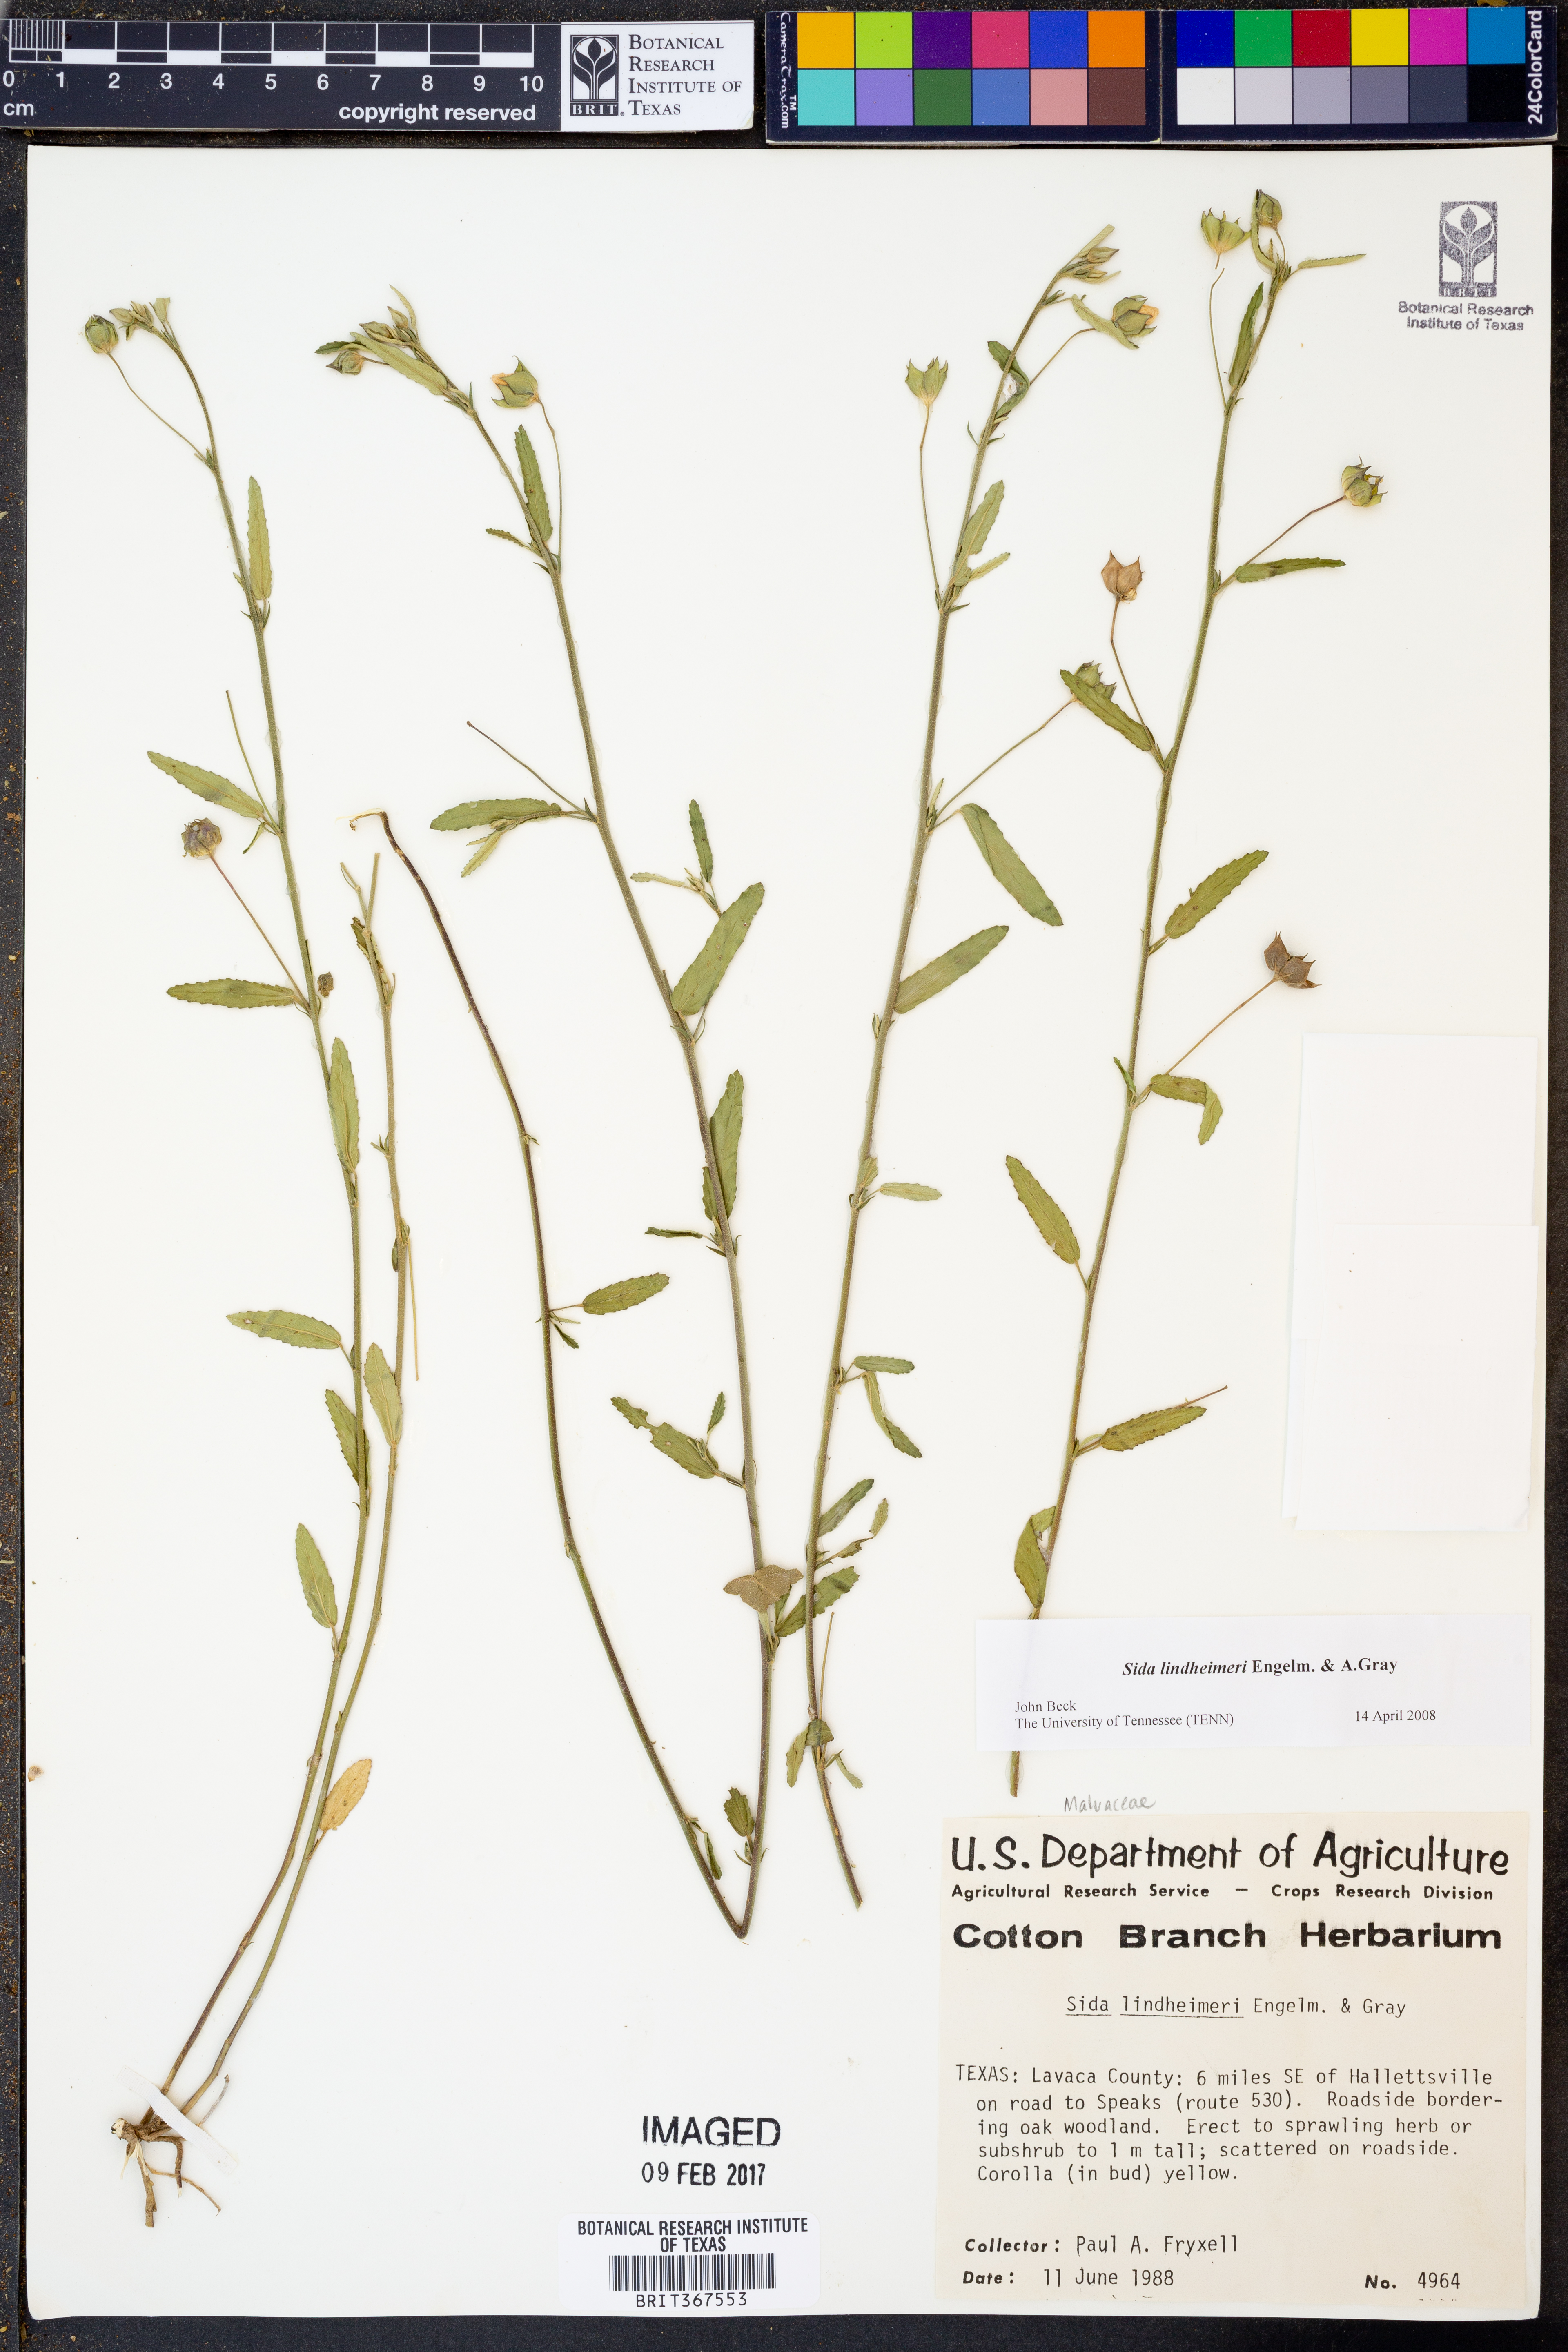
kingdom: Plantae
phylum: Tracheophyta
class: Magnoliopsida
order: Malvales
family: Malvaceae
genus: Sida
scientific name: Sida lindheimeri
